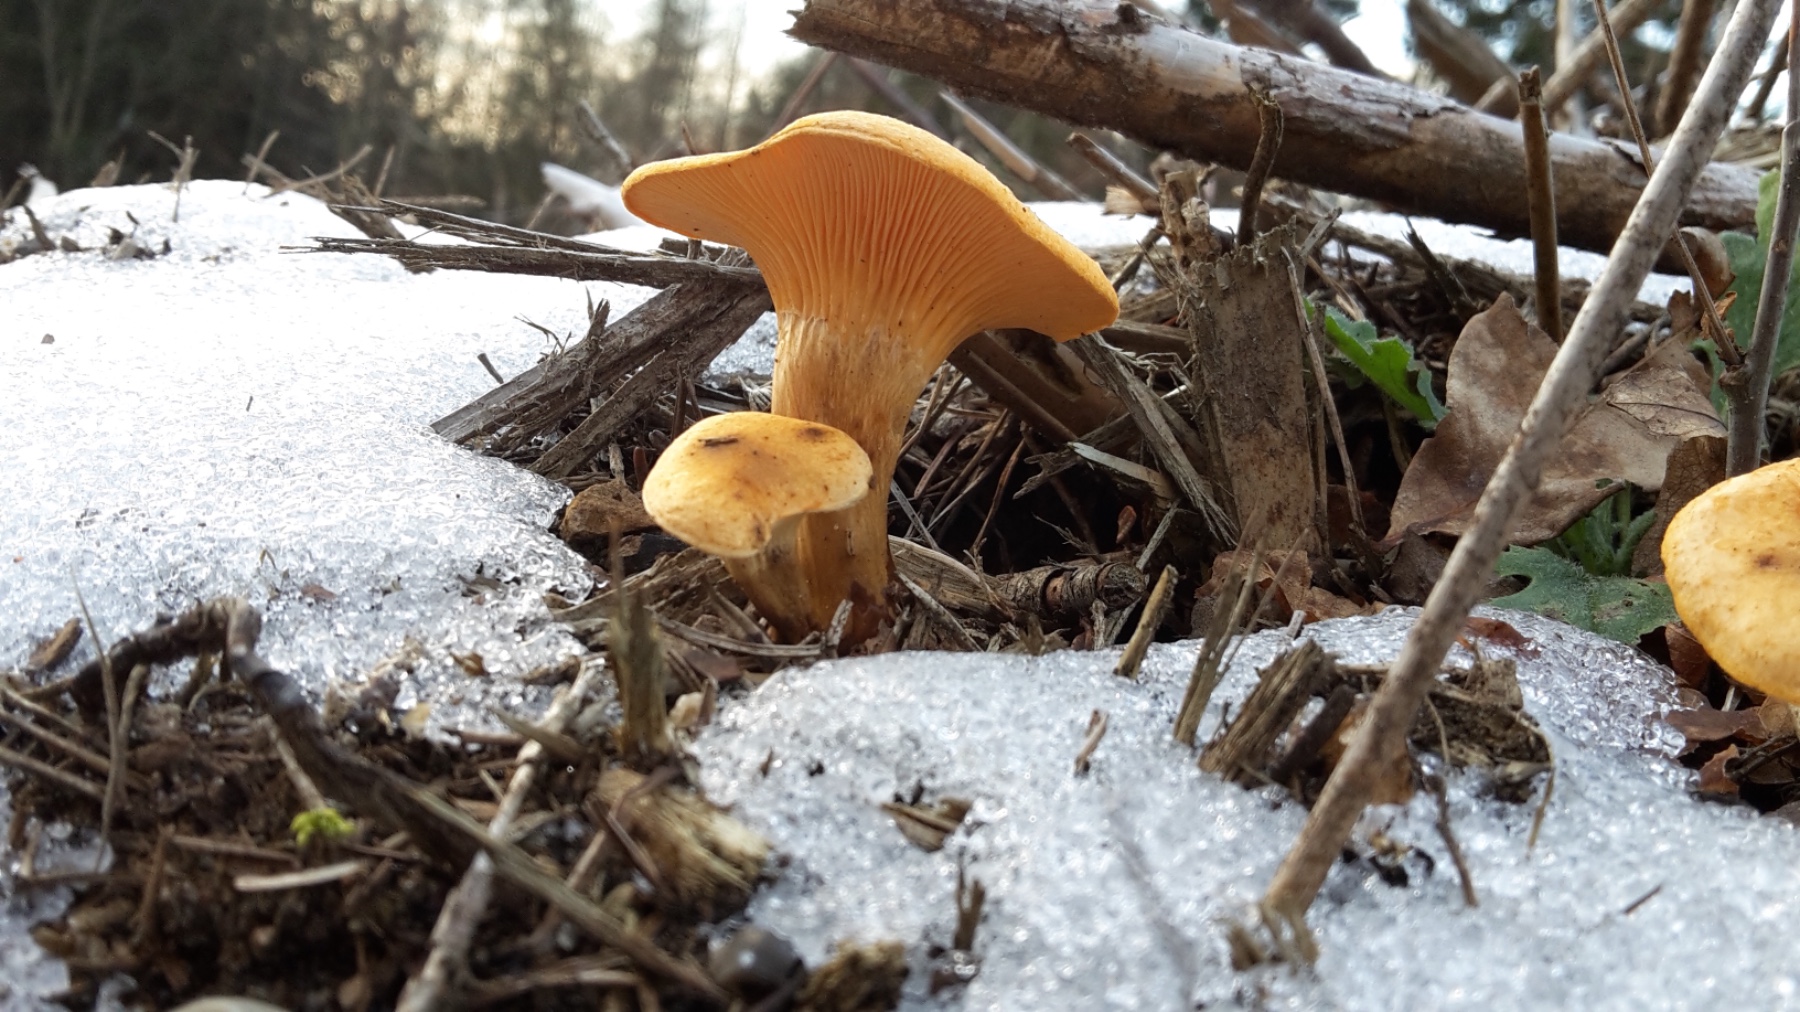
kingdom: Fungi
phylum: Basidiomycota
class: Agaricomycetes
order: Boletales
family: Hygrophoropsidaceae
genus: Hygrophoropsis
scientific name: Hygrophoropsis aurantiaca
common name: almindelig orangekantarel
